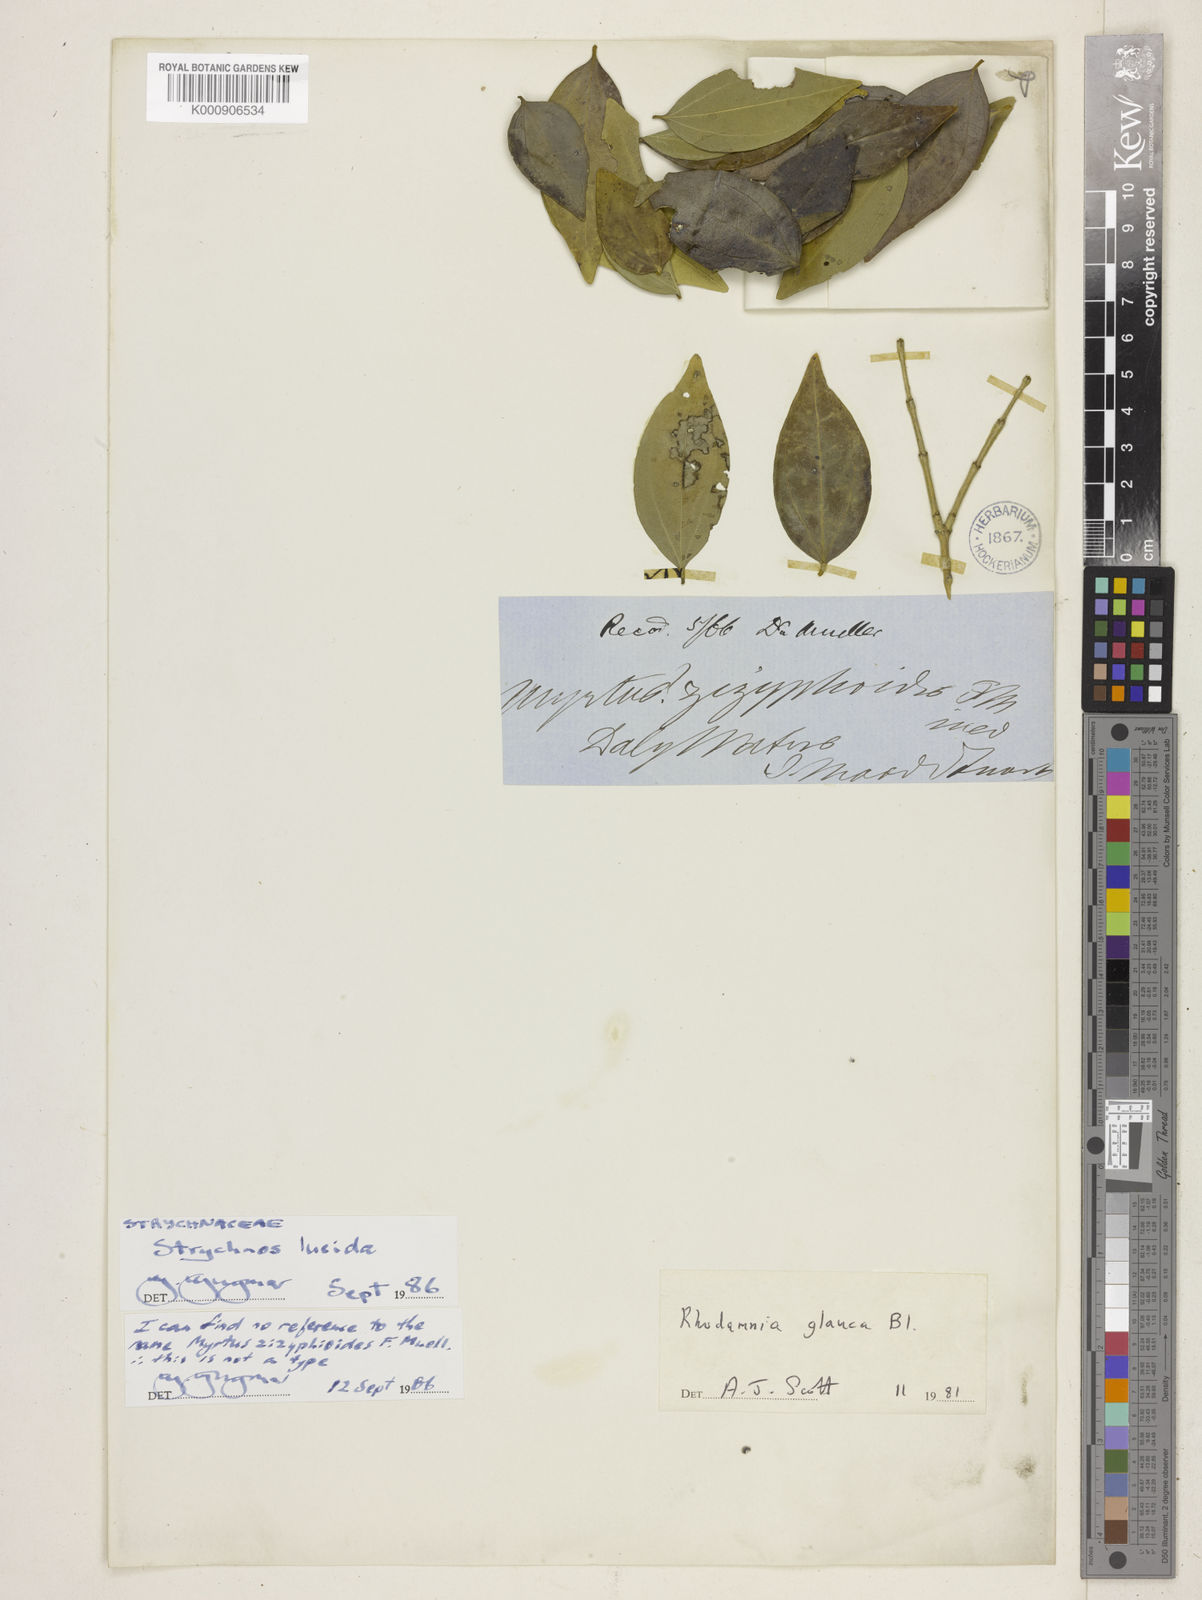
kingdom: Plantae
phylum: Tracheophyta
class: Magnoliopsida
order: Gentianales
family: Loganiaceae
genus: Strychnos
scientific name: Strychnos lucida
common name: Strychninebush
